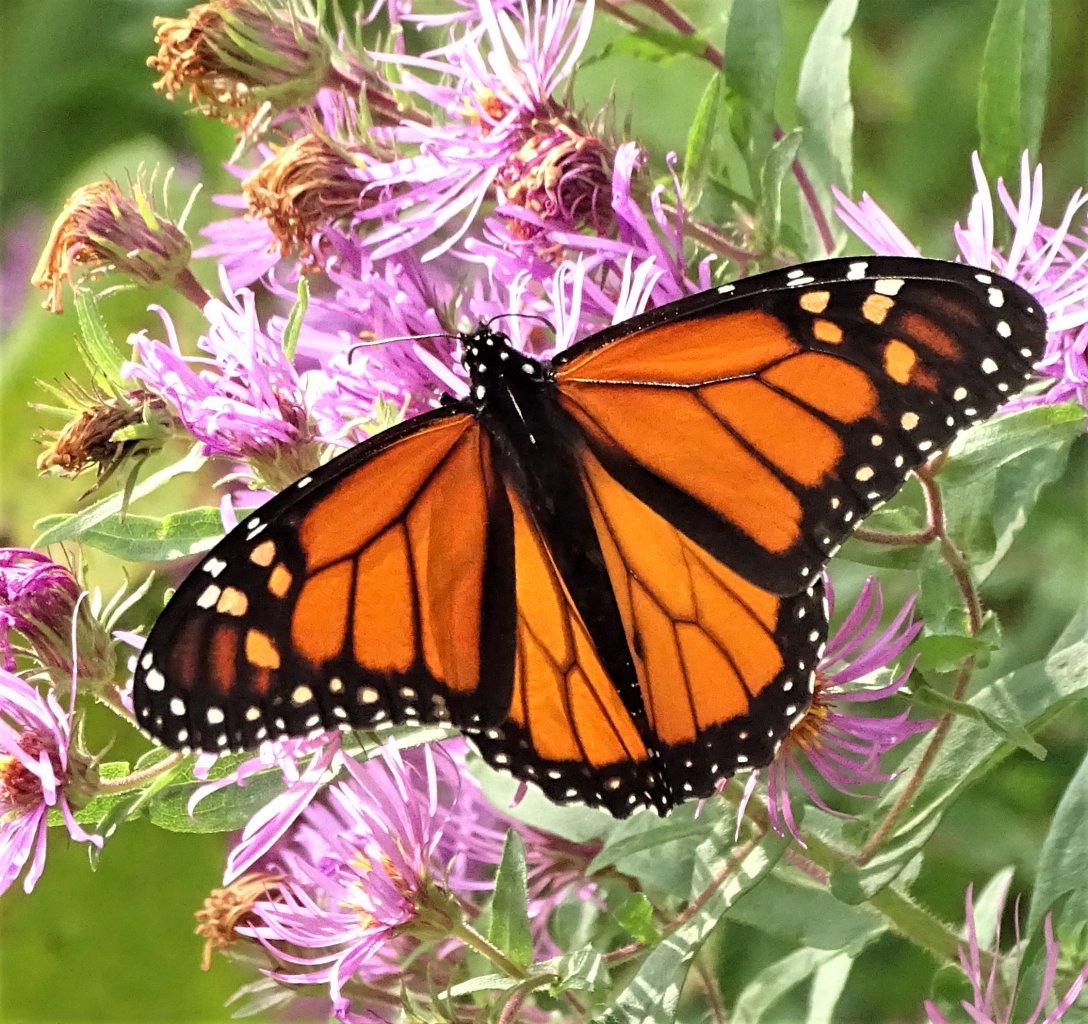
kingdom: Animalia
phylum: Arthropoda
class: Insecta
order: Lepidoptera
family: Nymphalidae
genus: Danaus
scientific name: Danaus plexippus
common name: Monarch
